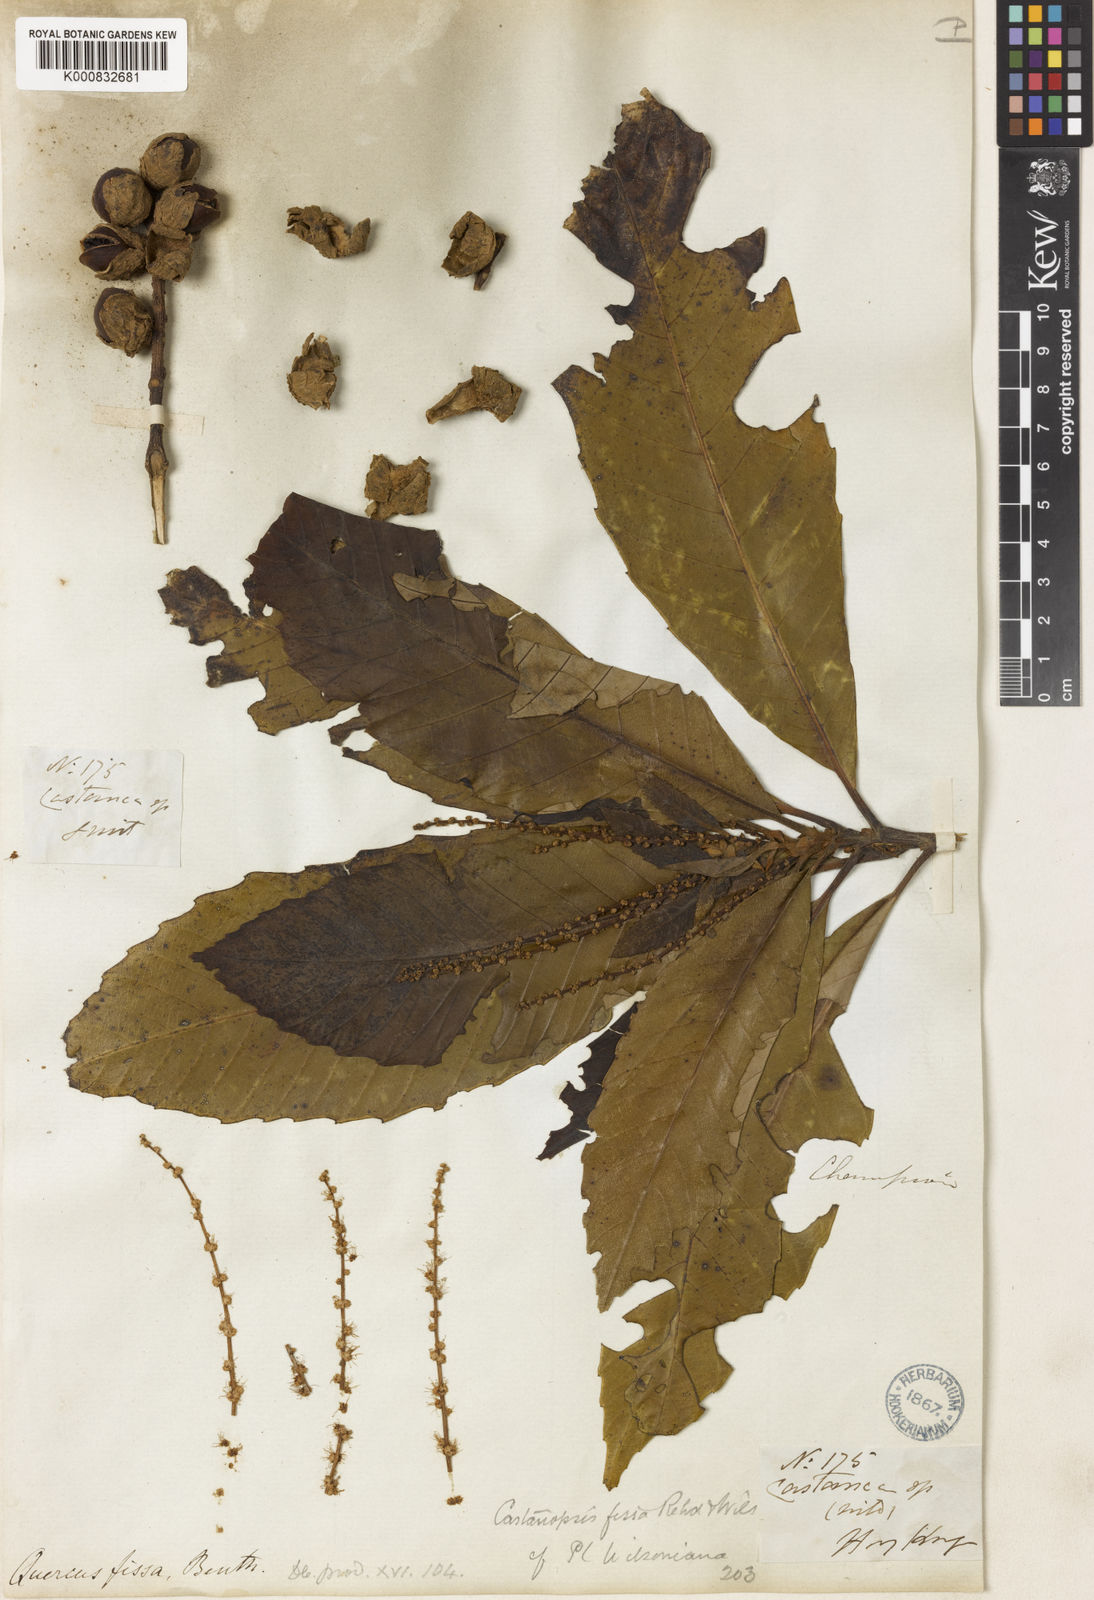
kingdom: Plantae
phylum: Tracheophyta
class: Magnoliopsida
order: Fagales
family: Fagaceae
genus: Castanopsis
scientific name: Castanopsis fissa
